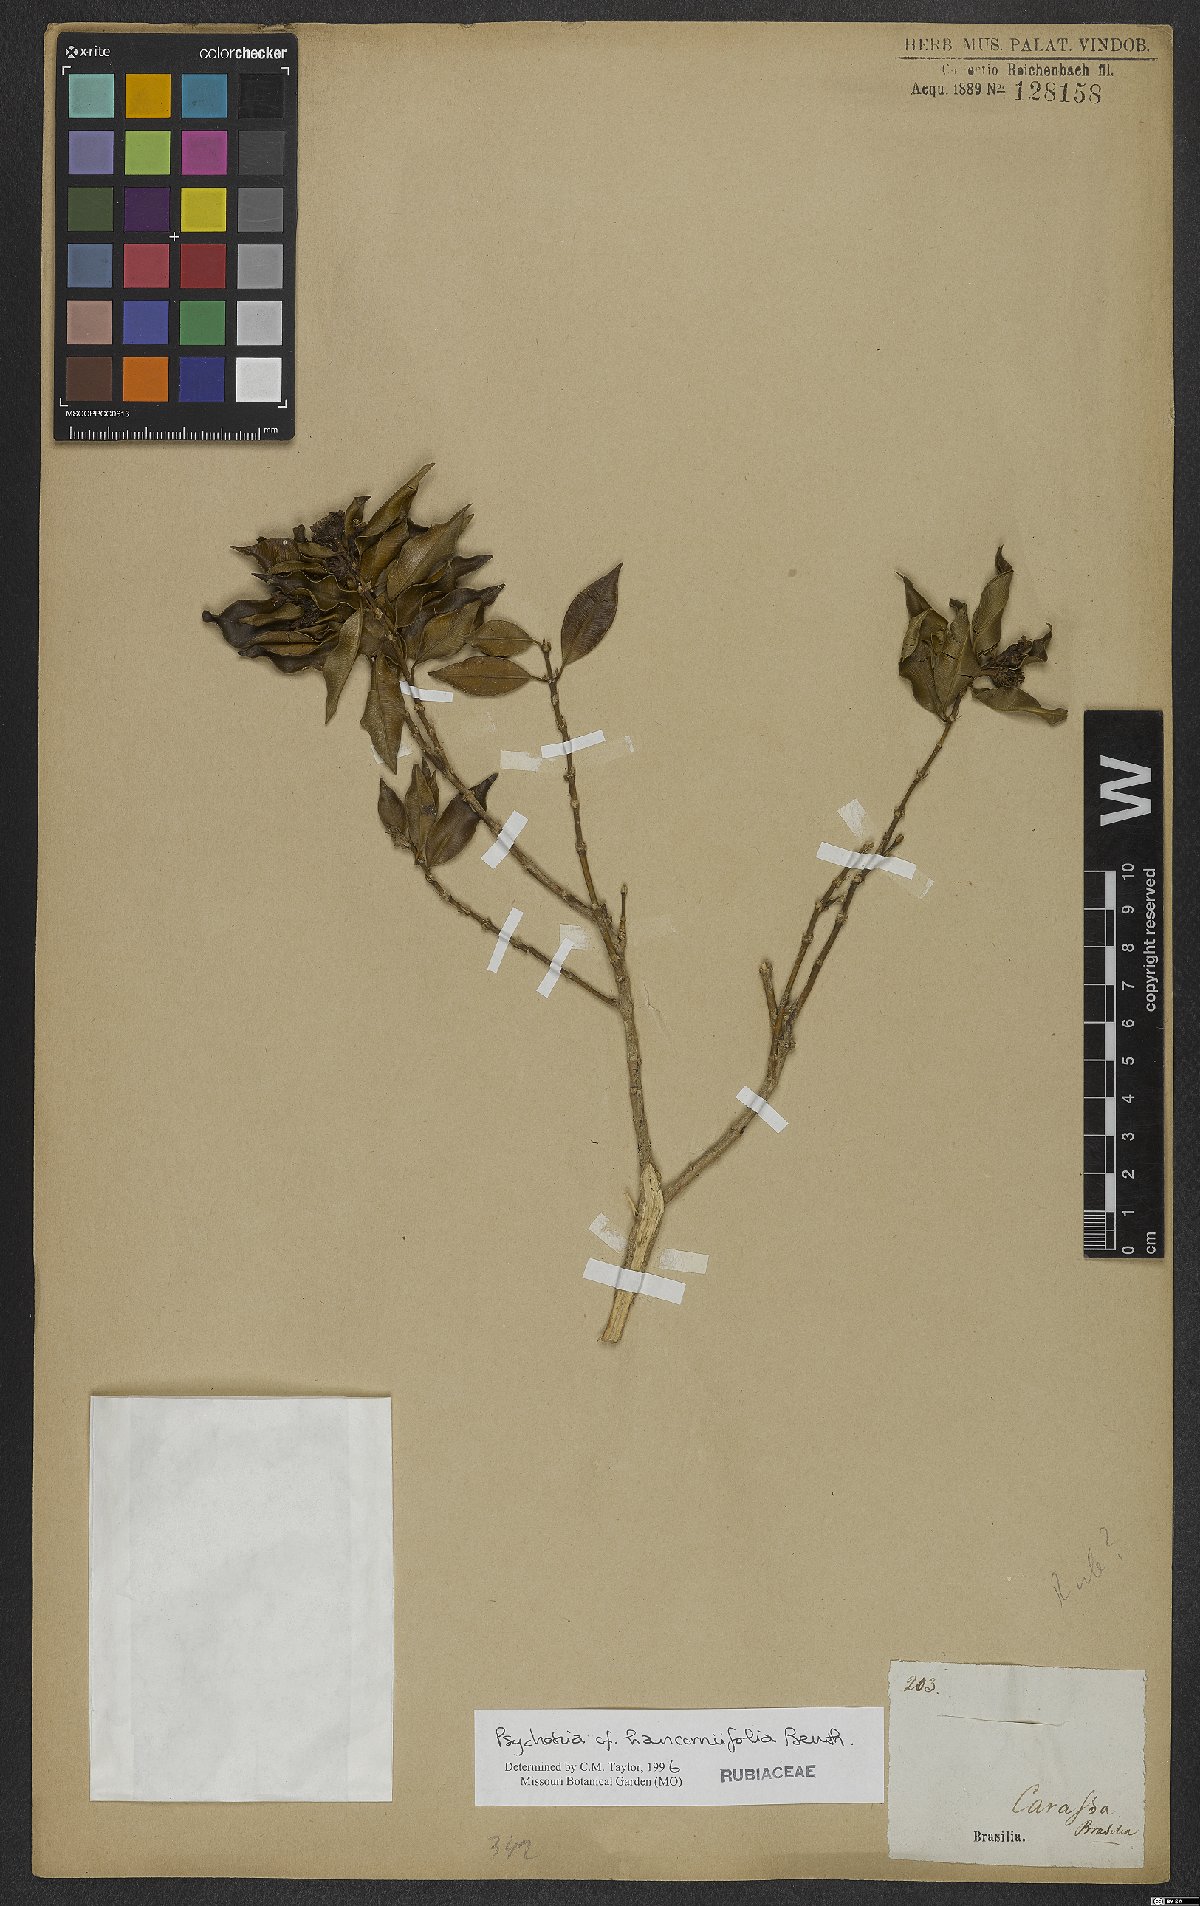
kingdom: Plantae
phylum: Tracheophyta
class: Magnoliopsida
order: Gentianales
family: Rubiaceae
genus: Palicourea
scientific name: Palicourea sessilis
